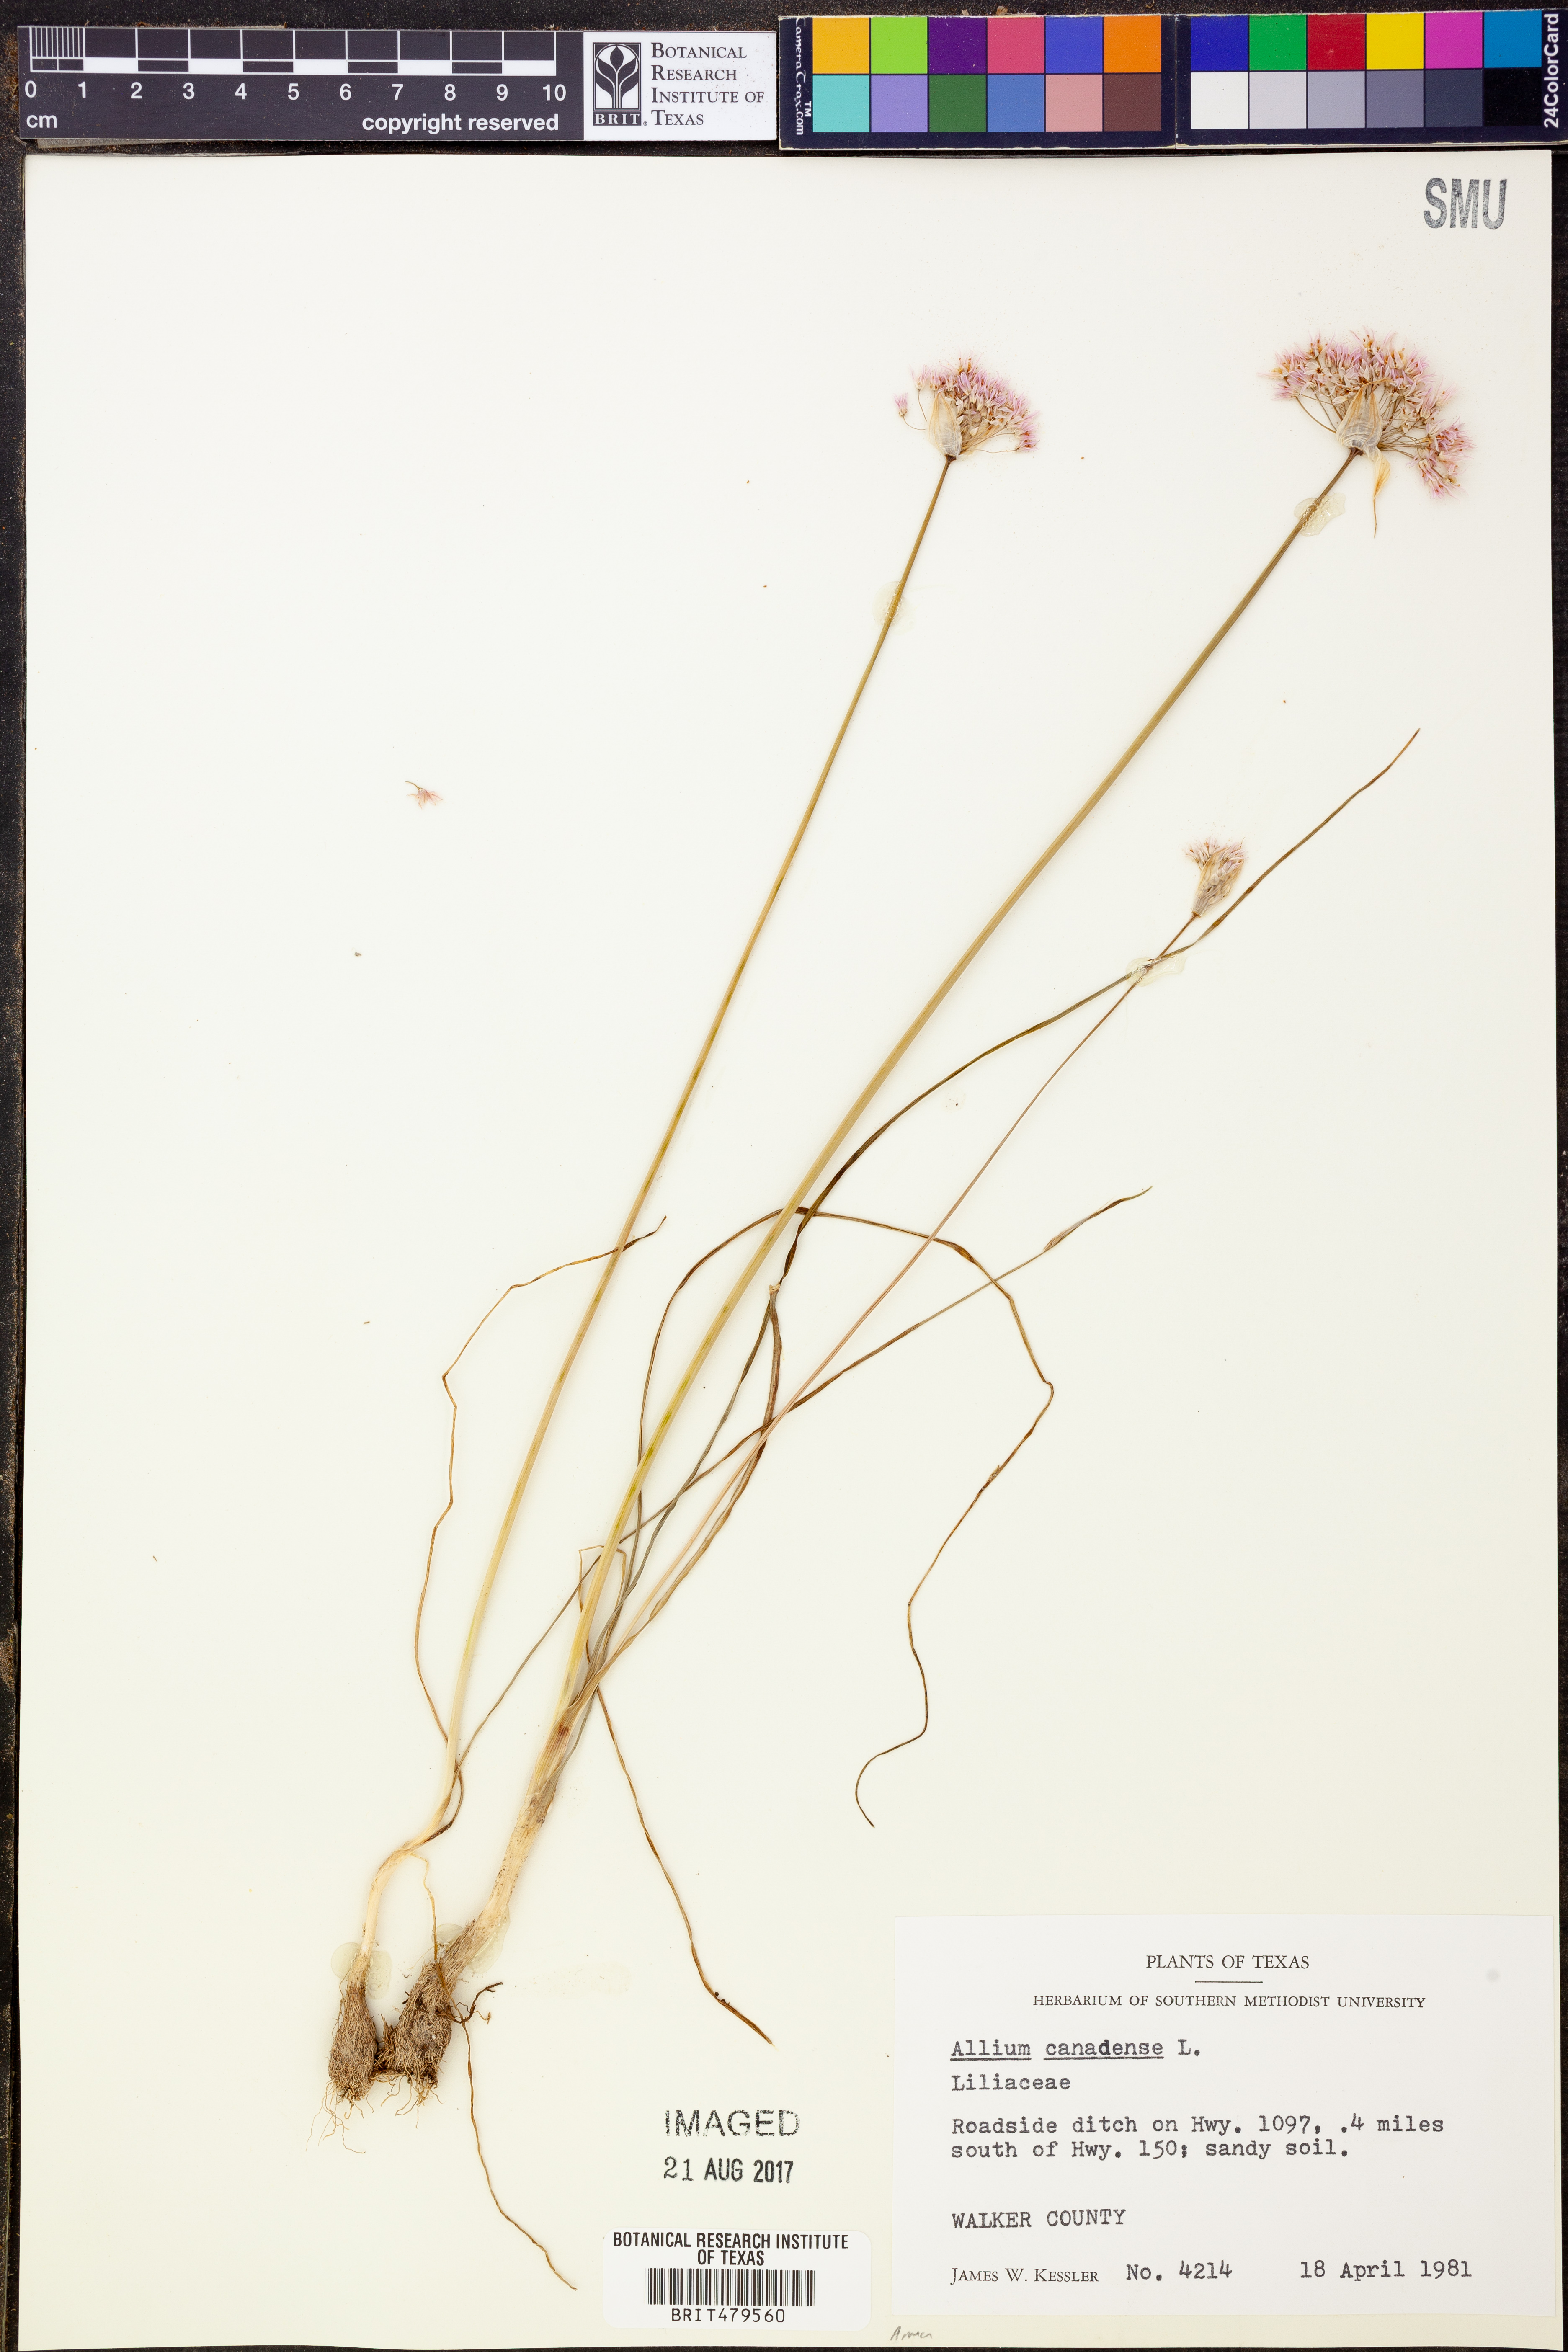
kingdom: Plantae
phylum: Tracheophyta
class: Liliopsida
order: Asparagales
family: Amaryllidaceae
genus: Allium
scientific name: Allium canadense
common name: Meadow garlic
